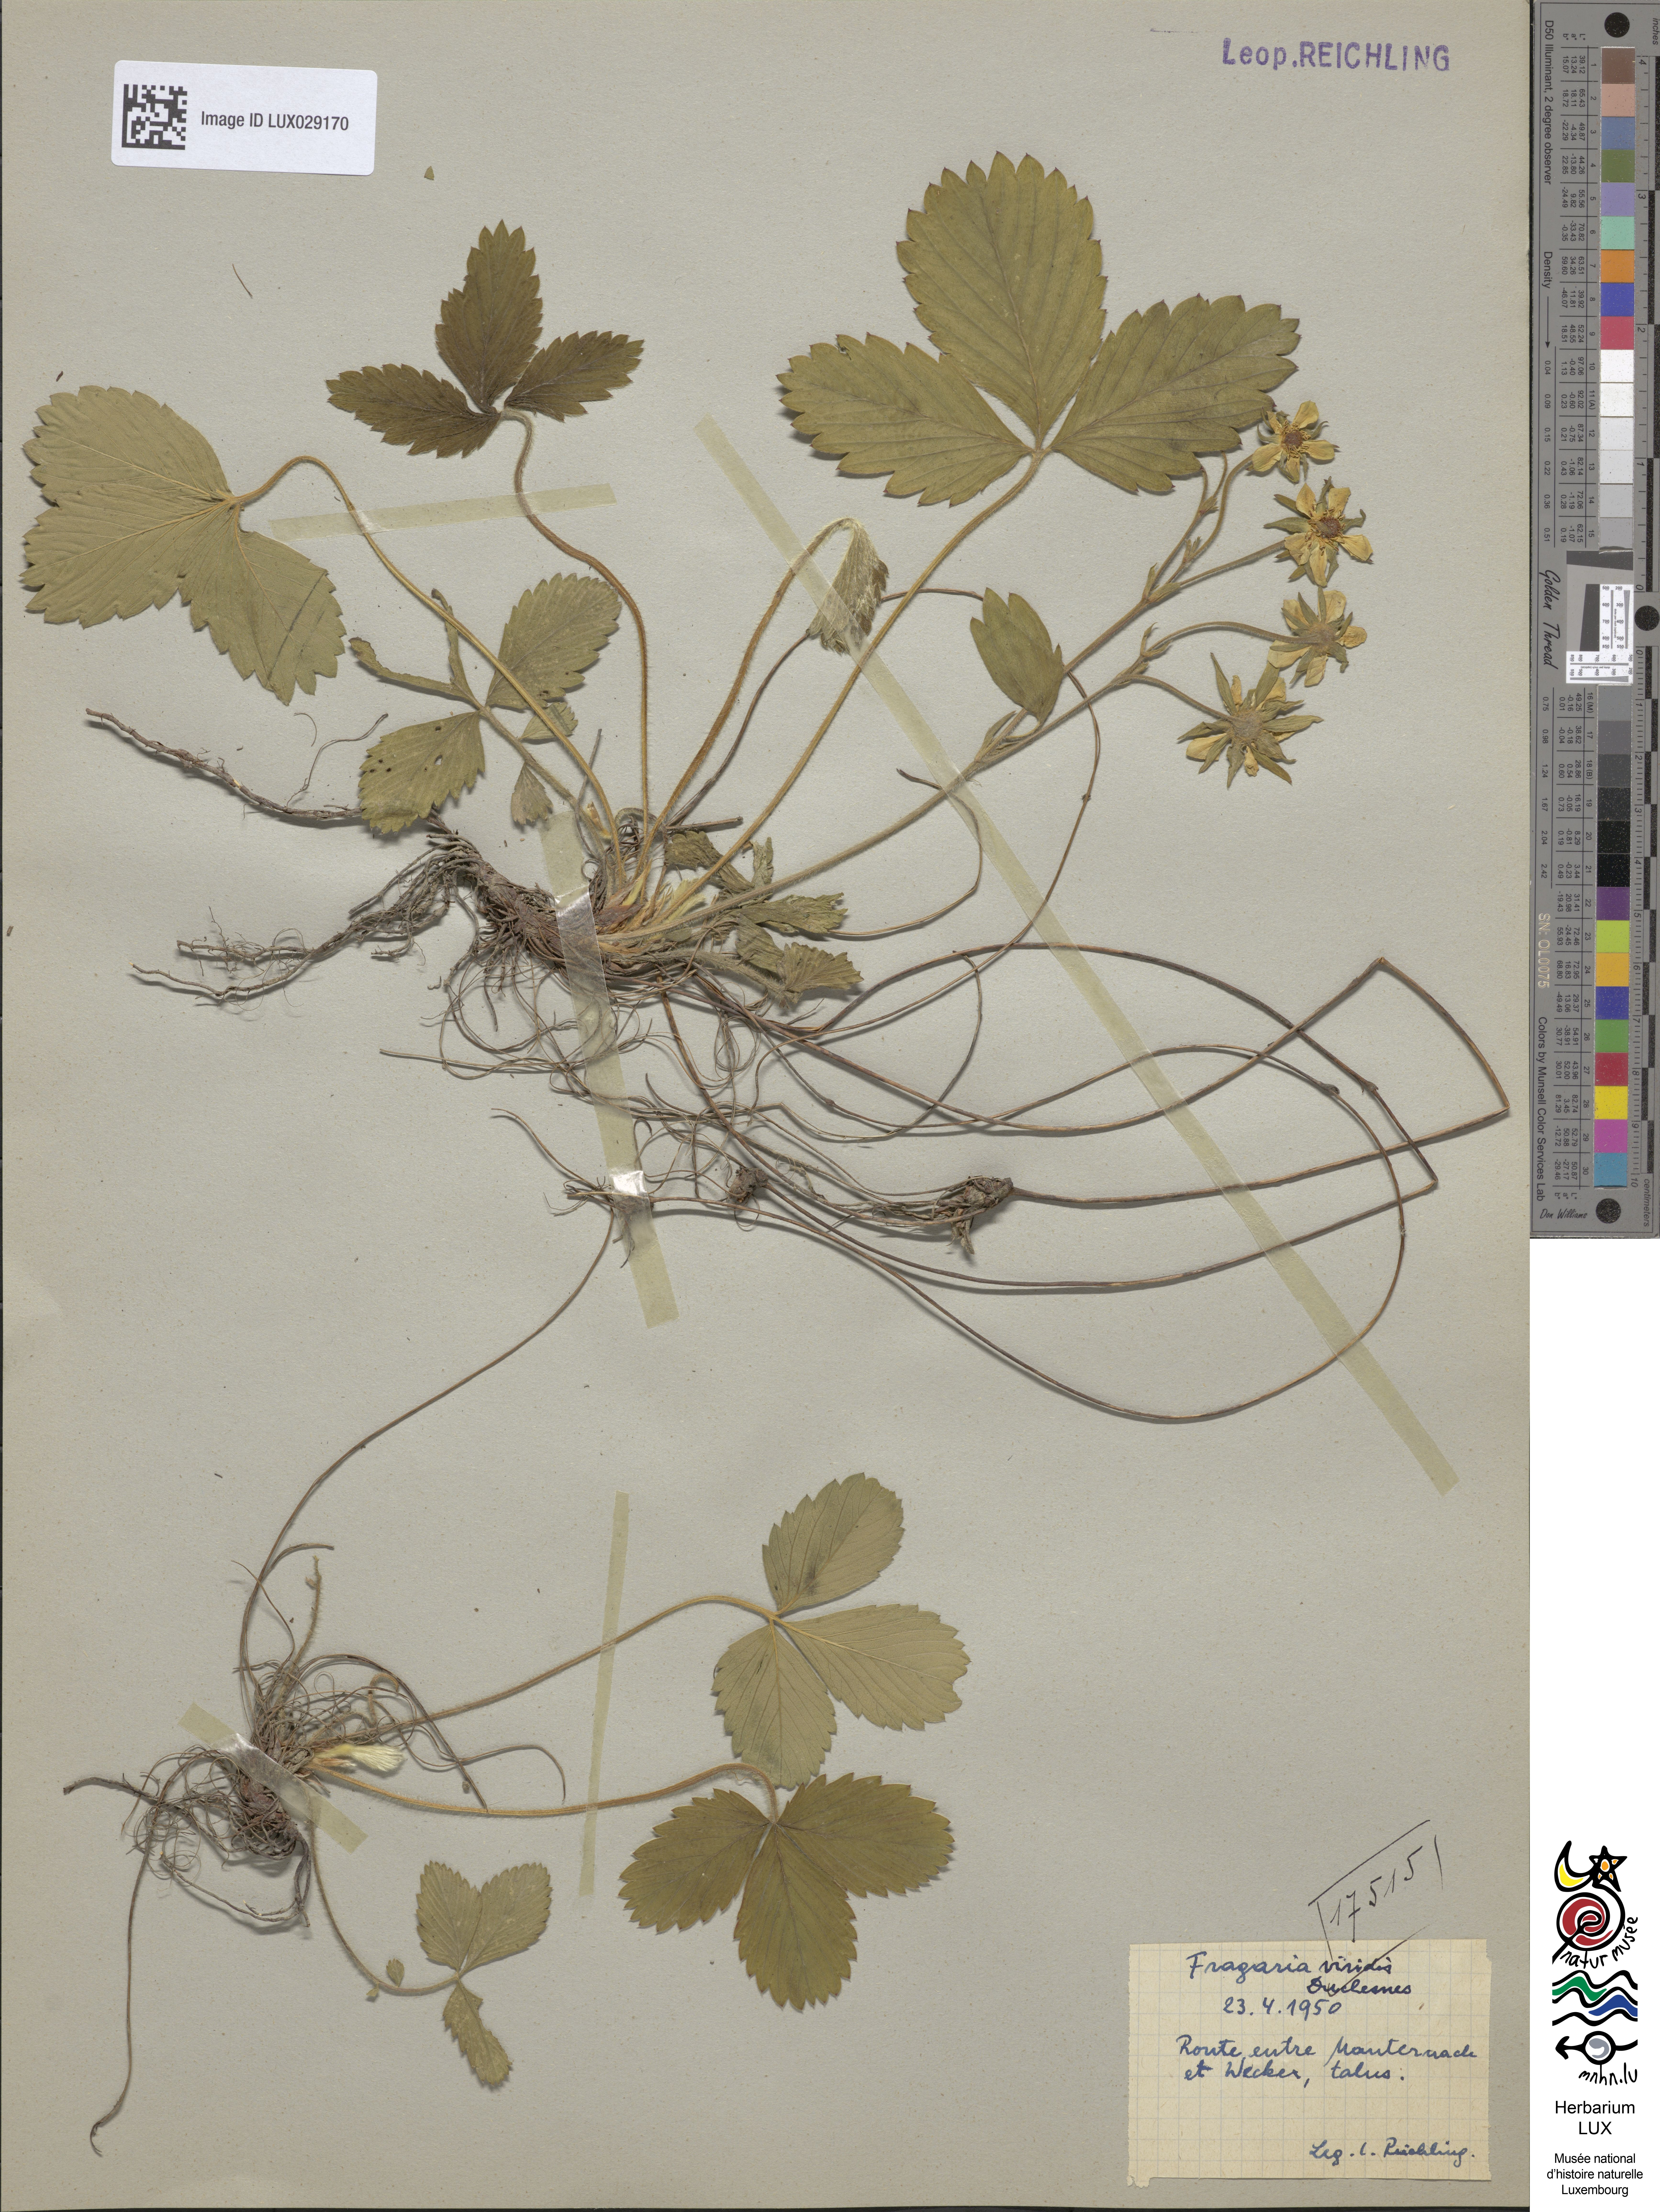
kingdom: Plantae
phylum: Tracheophyta
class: Magnoliopsida
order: Rosales
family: Rosaceae
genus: Fragaria
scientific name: Fragaria viridis
